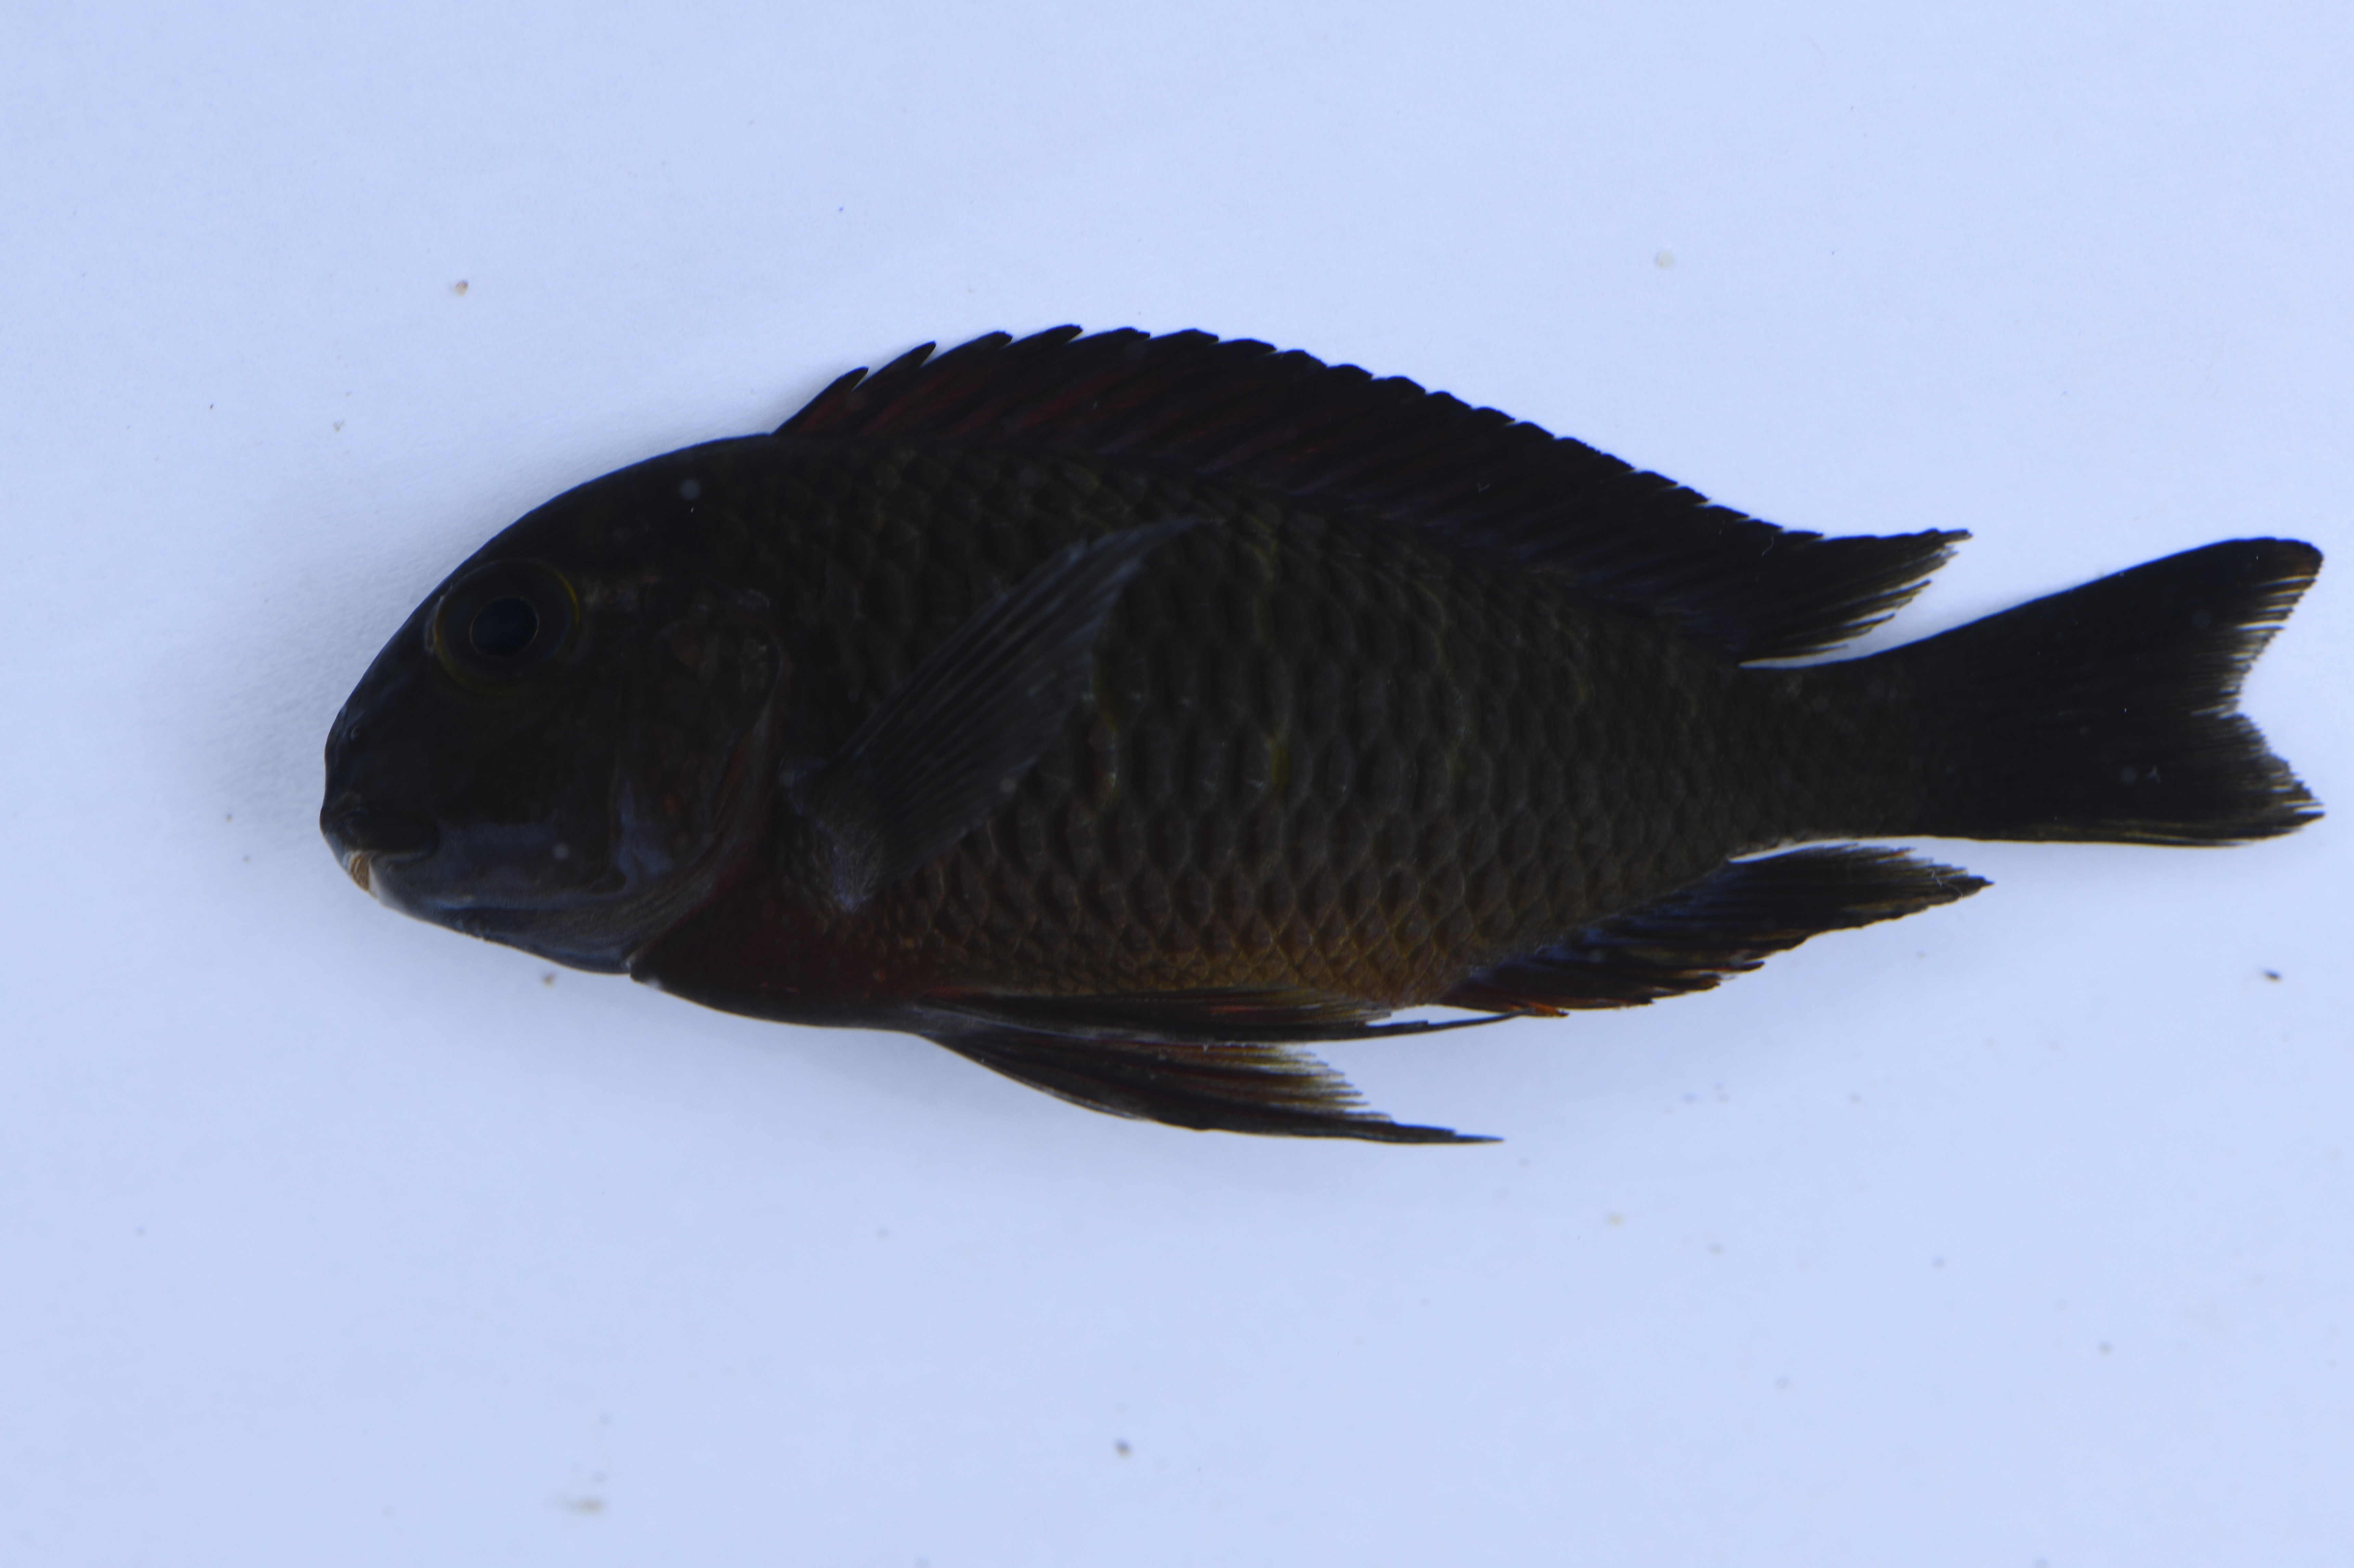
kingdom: Animalia
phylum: Chordata
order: Perciformes
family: Cichlidae
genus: Tropheus
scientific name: Tropheus moorii
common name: Blunthead cichlid
